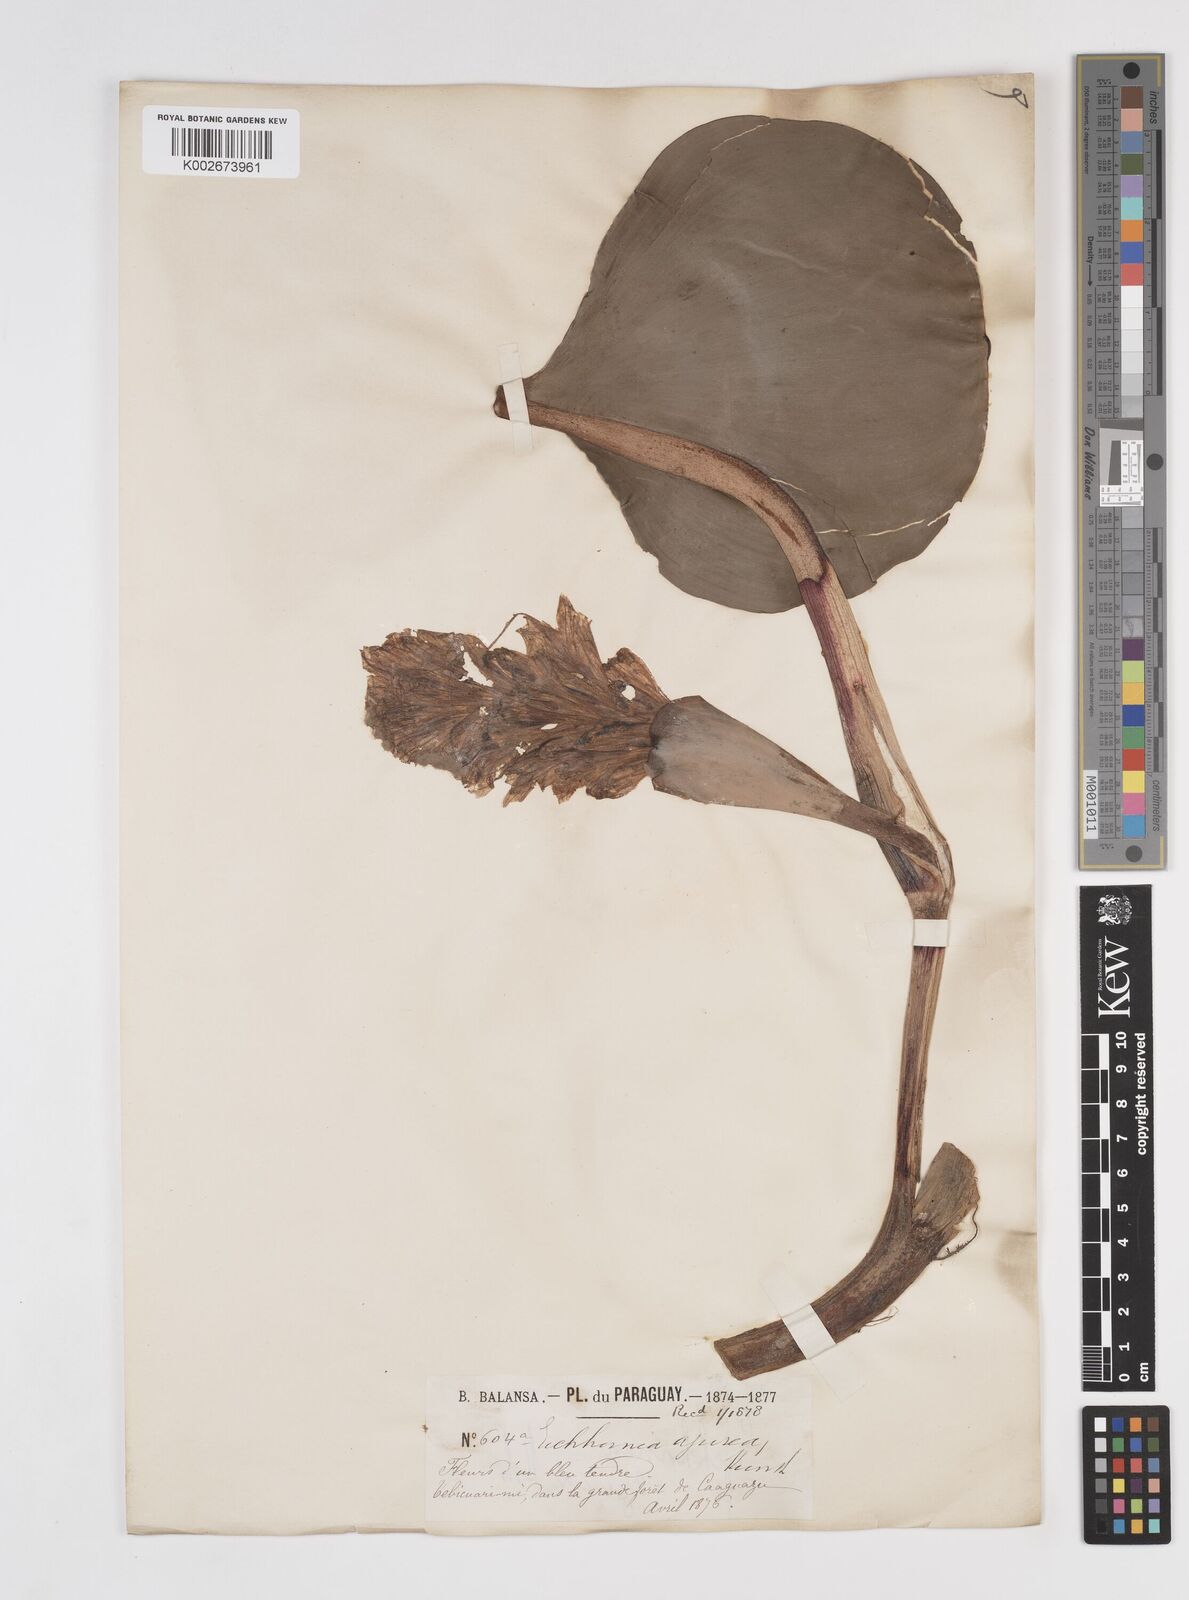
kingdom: Plantae
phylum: Tracheophyta
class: Liliopsida
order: Commelinales
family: Pontederiaceae
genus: Pontederia
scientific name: Pontederia azurea
